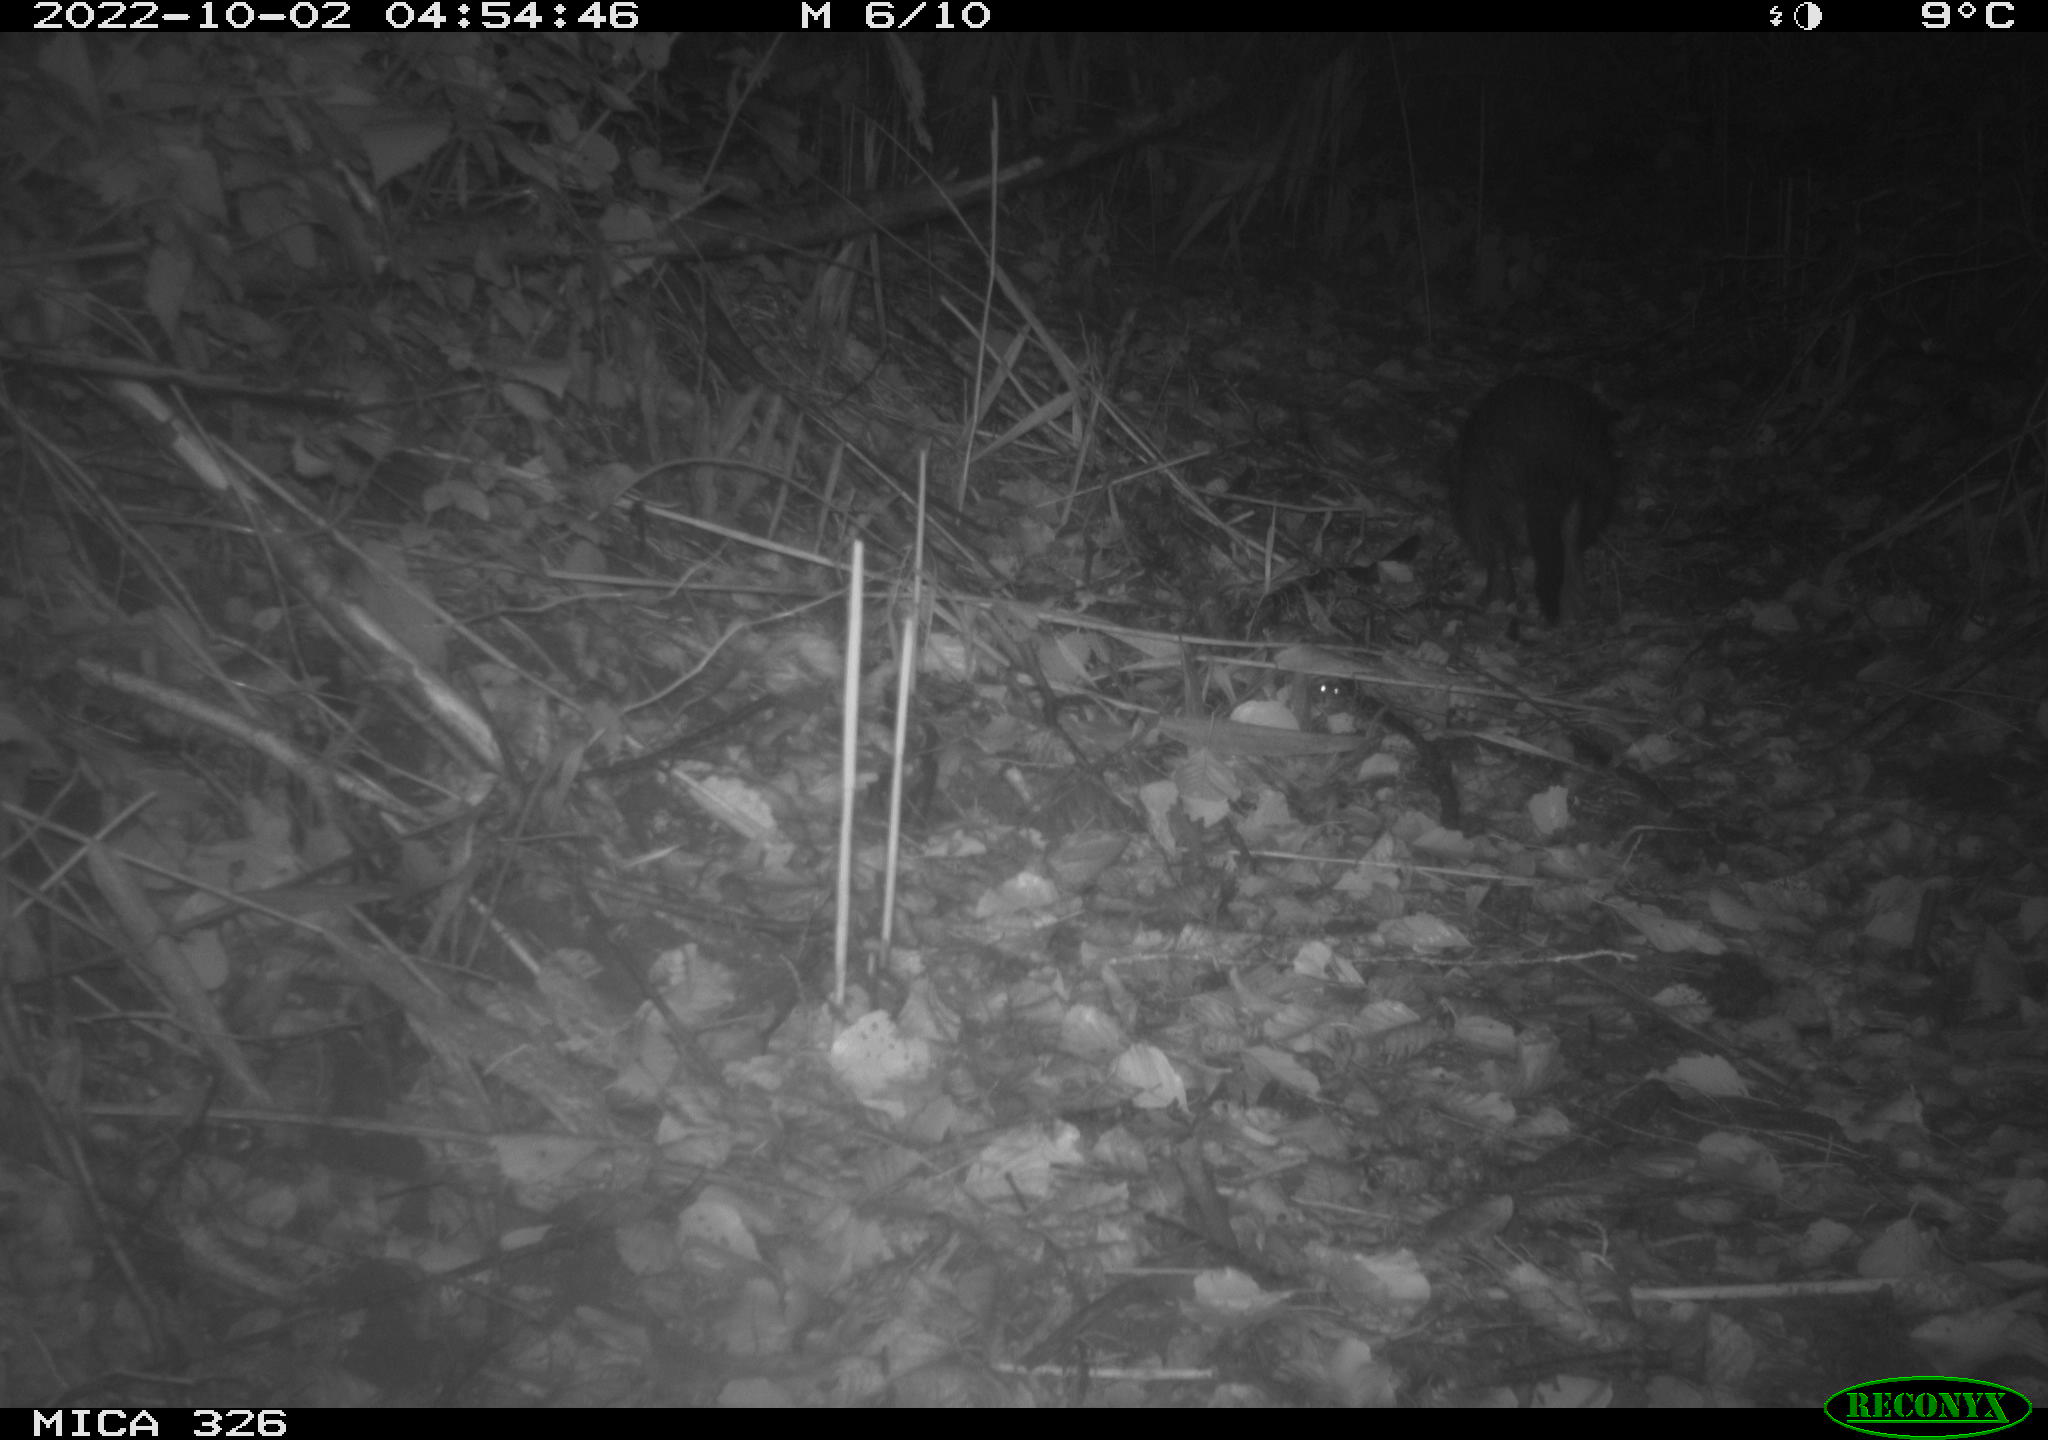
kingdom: Animalia
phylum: Chordata
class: Mammalia
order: Rodentia
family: Myocastoridae
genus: Myocastor
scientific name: Myocastor coypus
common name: Coypu
